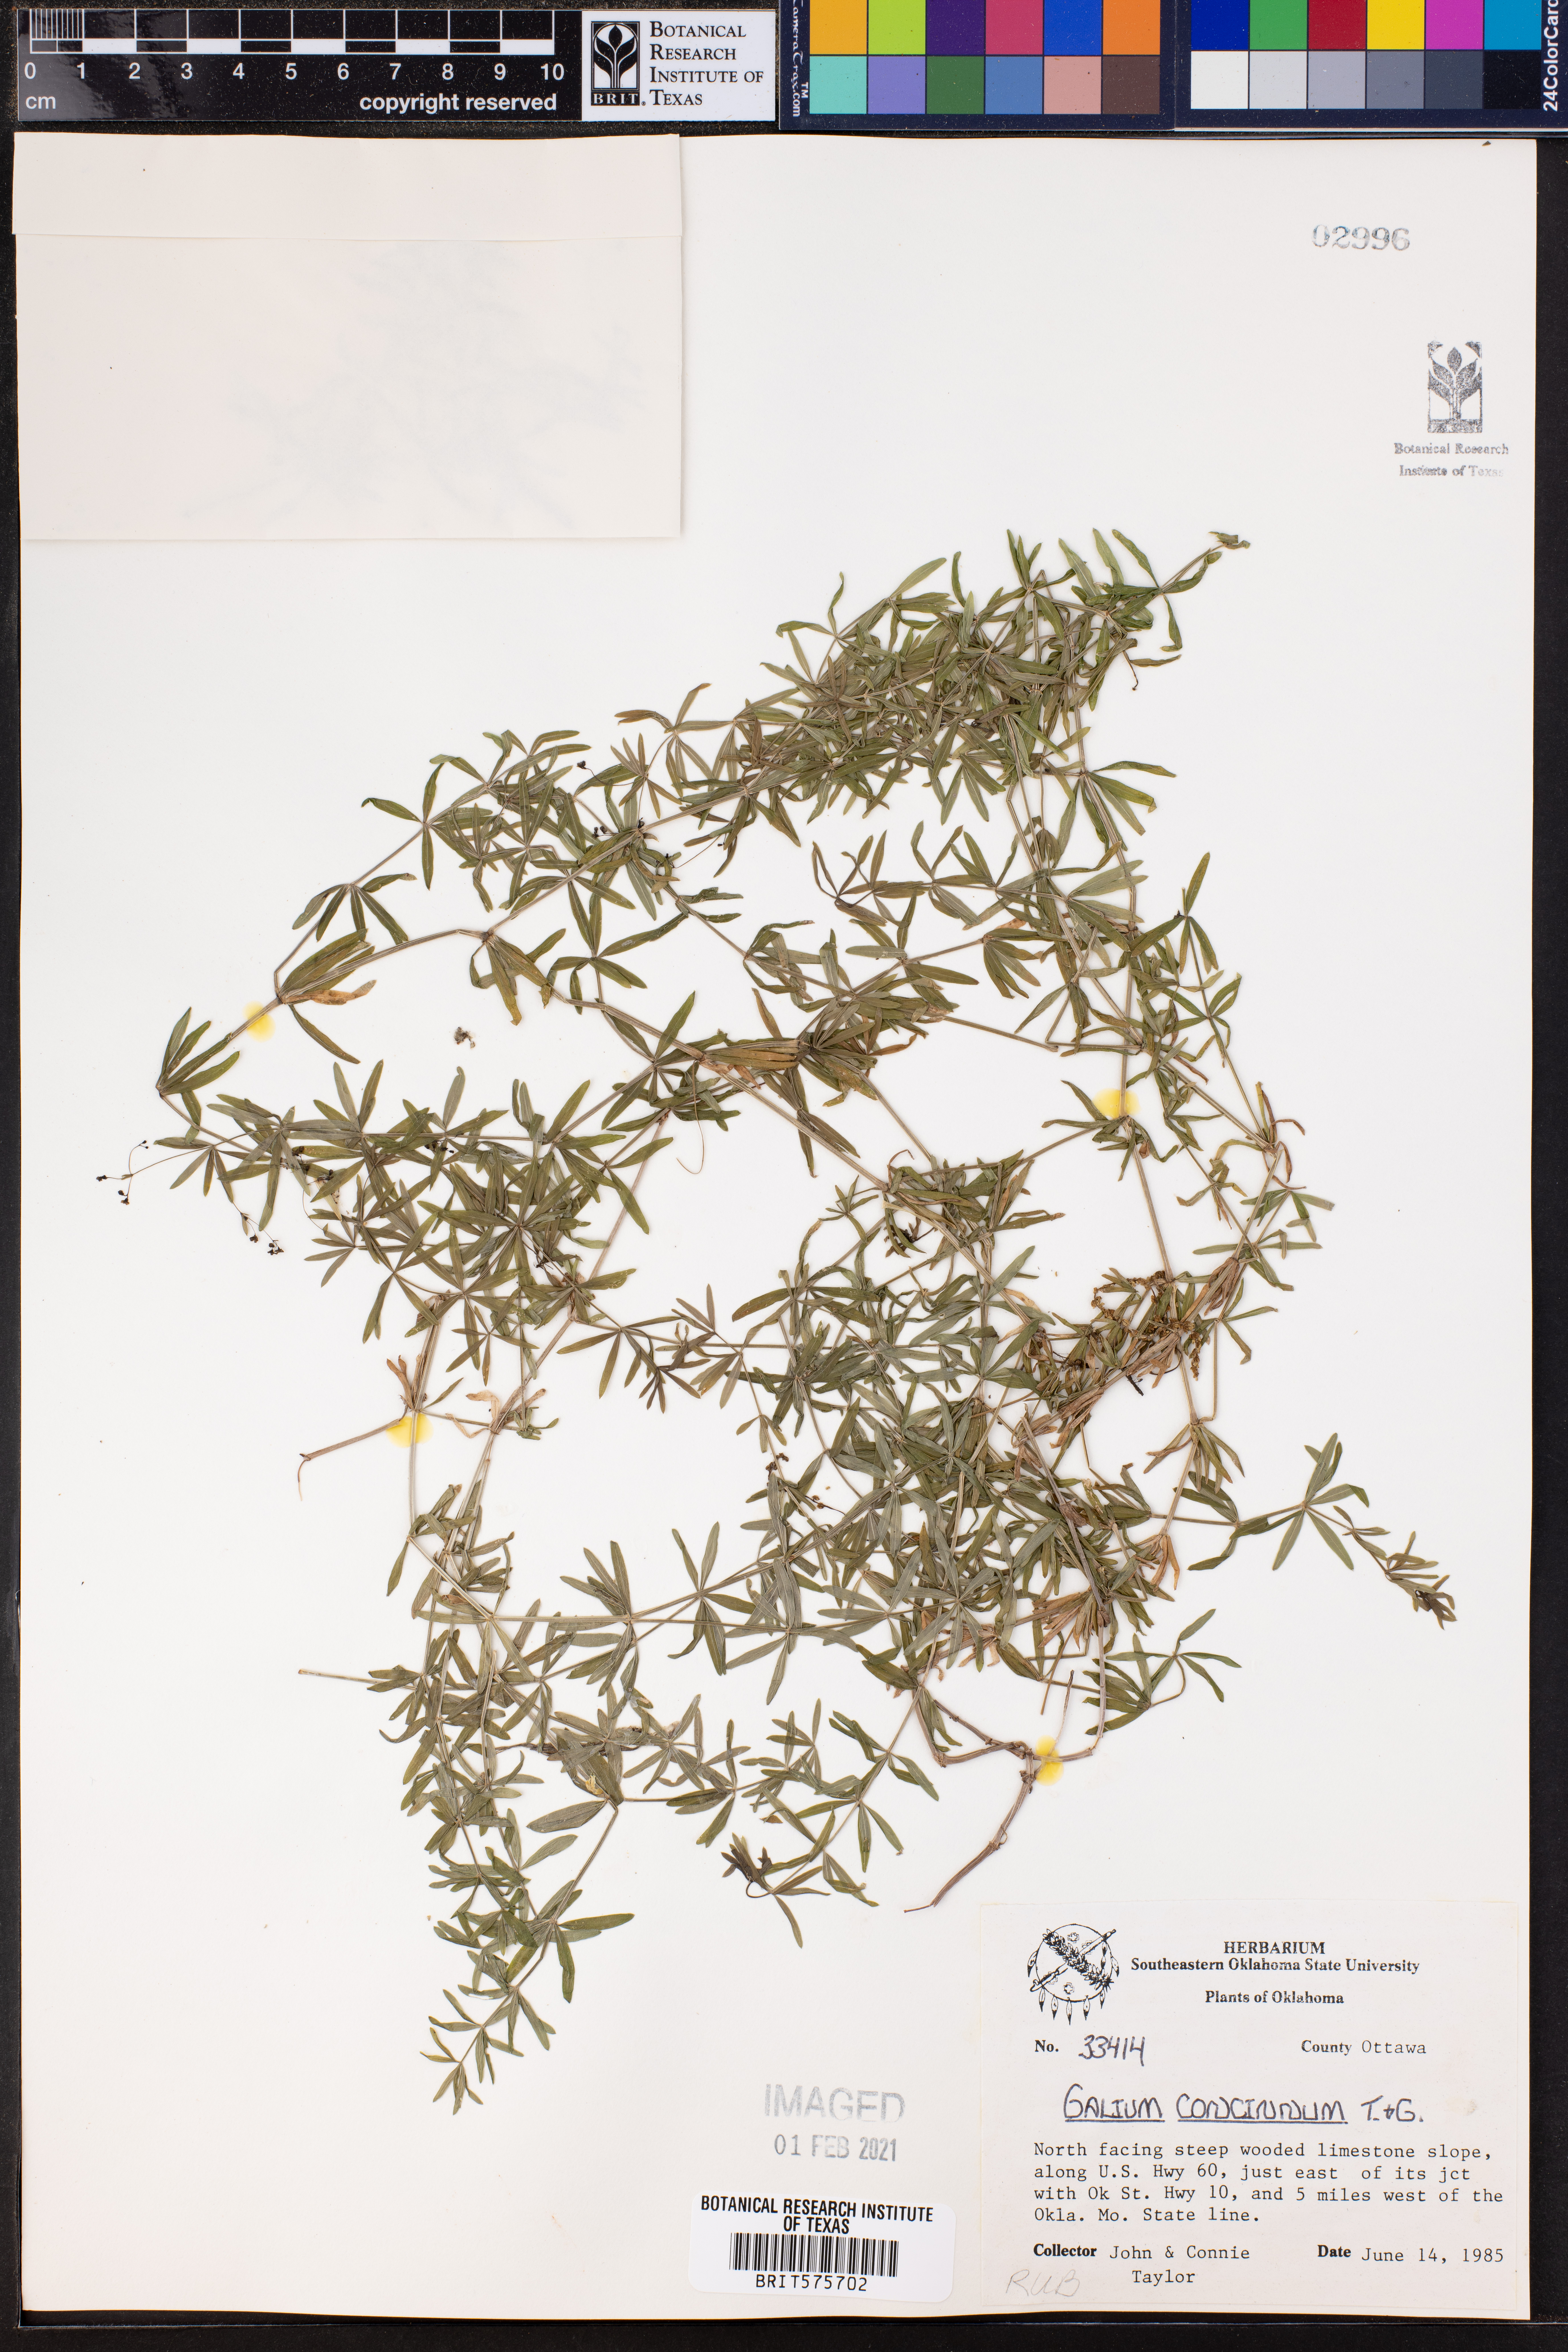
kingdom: Plantae
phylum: Tracheophyta
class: Magnoliopsida
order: Gentianales
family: Rubiaceae
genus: Galium
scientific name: Galium concinnum
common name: Shining bedstraw
